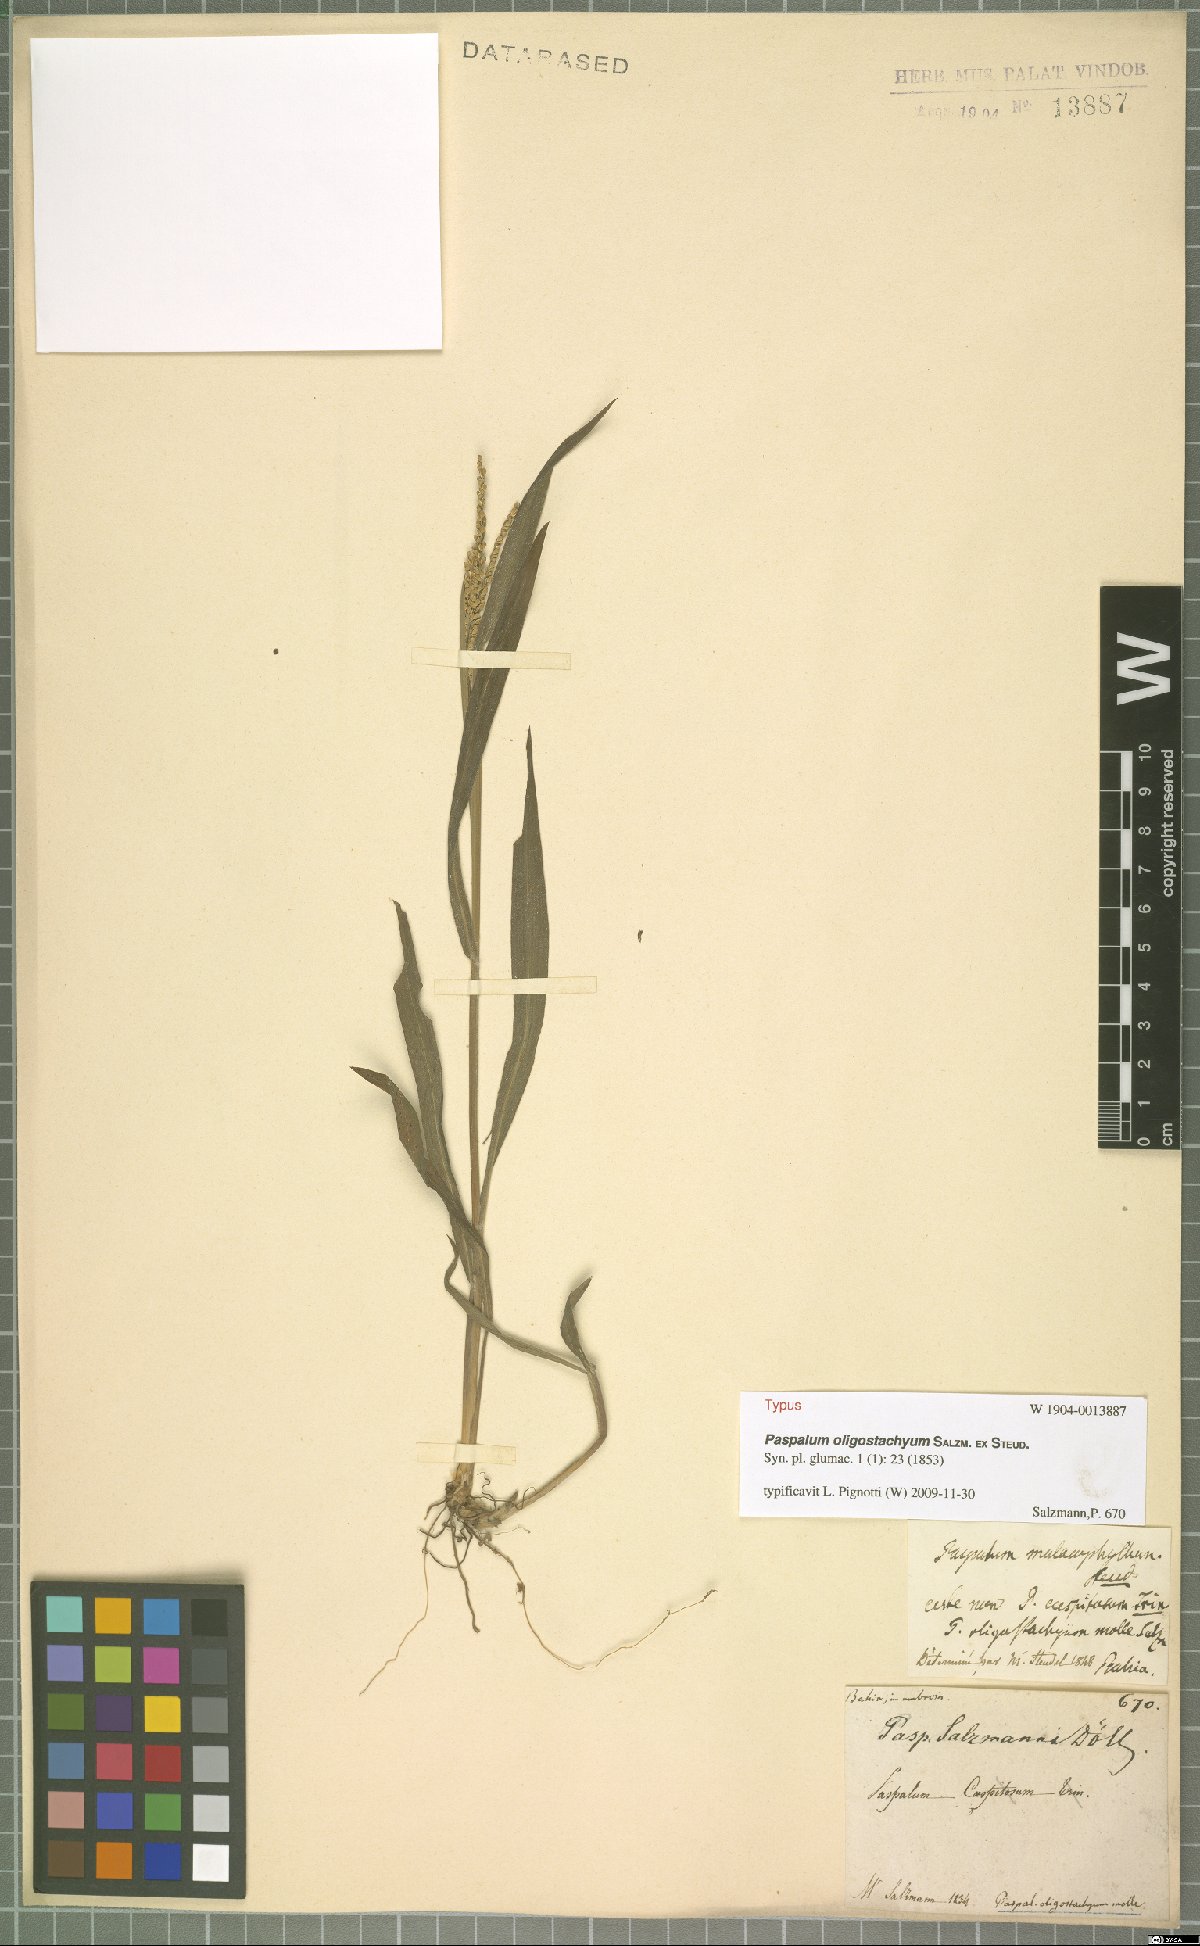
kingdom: Plantae
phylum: Tracheophyta
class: Liliopsida
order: Poales
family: Poaceae
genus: Paspalum
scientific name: Paspalum oligostachyum
